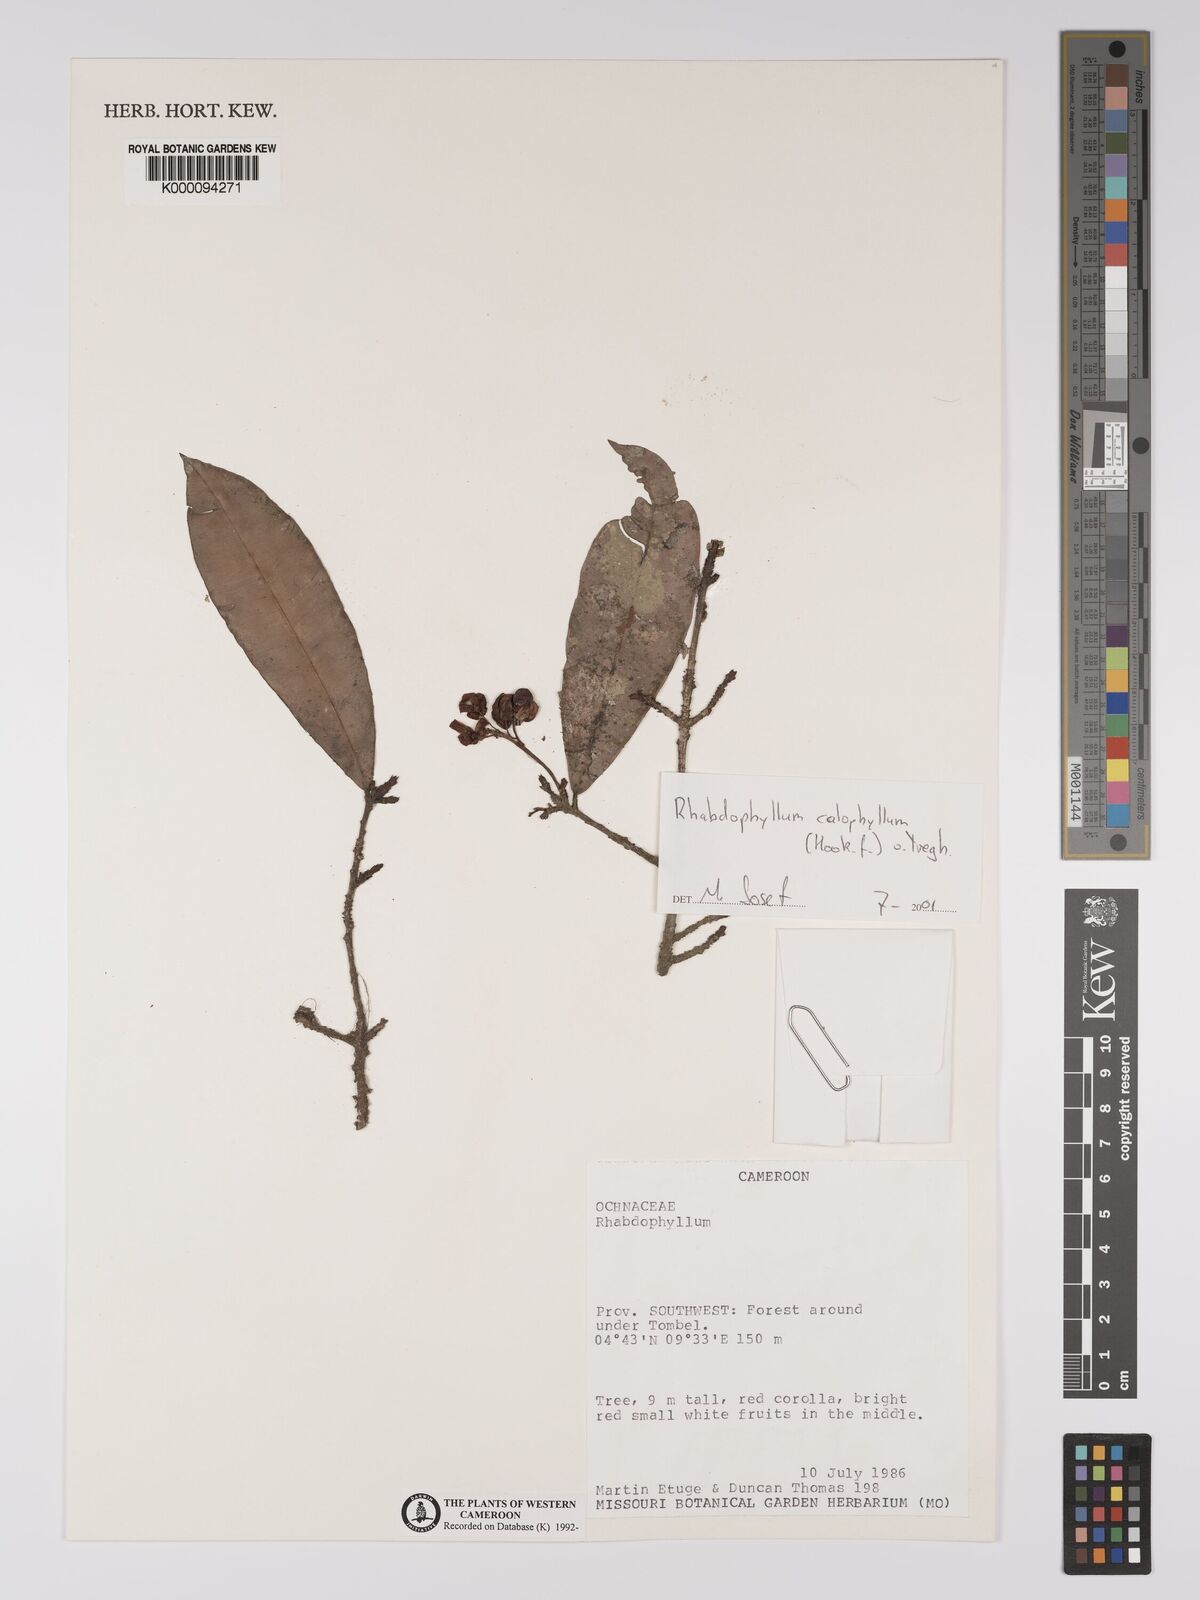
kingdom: Plantae
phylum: Tracheophyta
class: Magnoliopsida
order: Malpighiales
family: Ochnaceae
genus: Rhabdophyllum
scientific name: Rhabdophyllum
